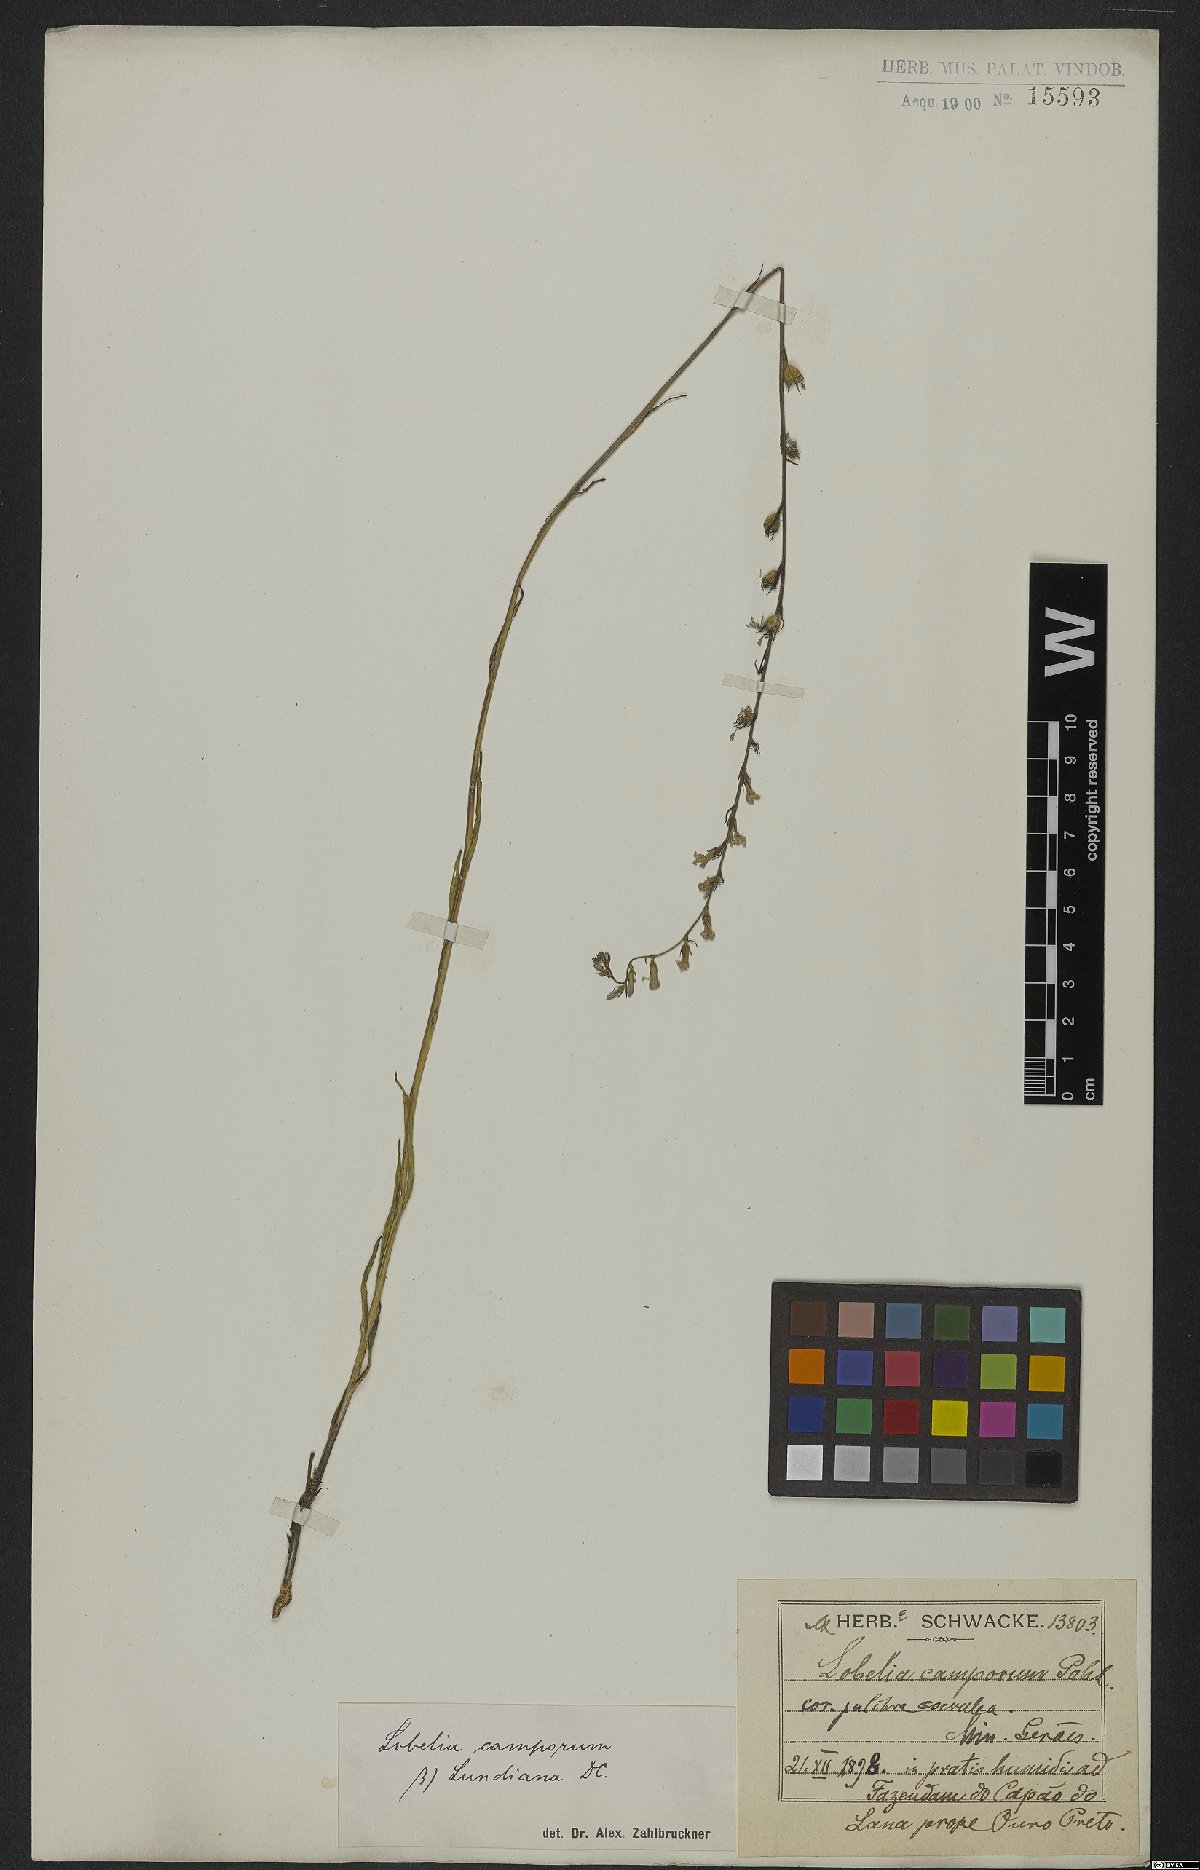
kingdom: Plantae
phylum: Tracheophyta
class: Magnoliopsida
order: Asterales
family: Campanulaceae
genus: Lobelia
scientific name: Lobelia camporum
